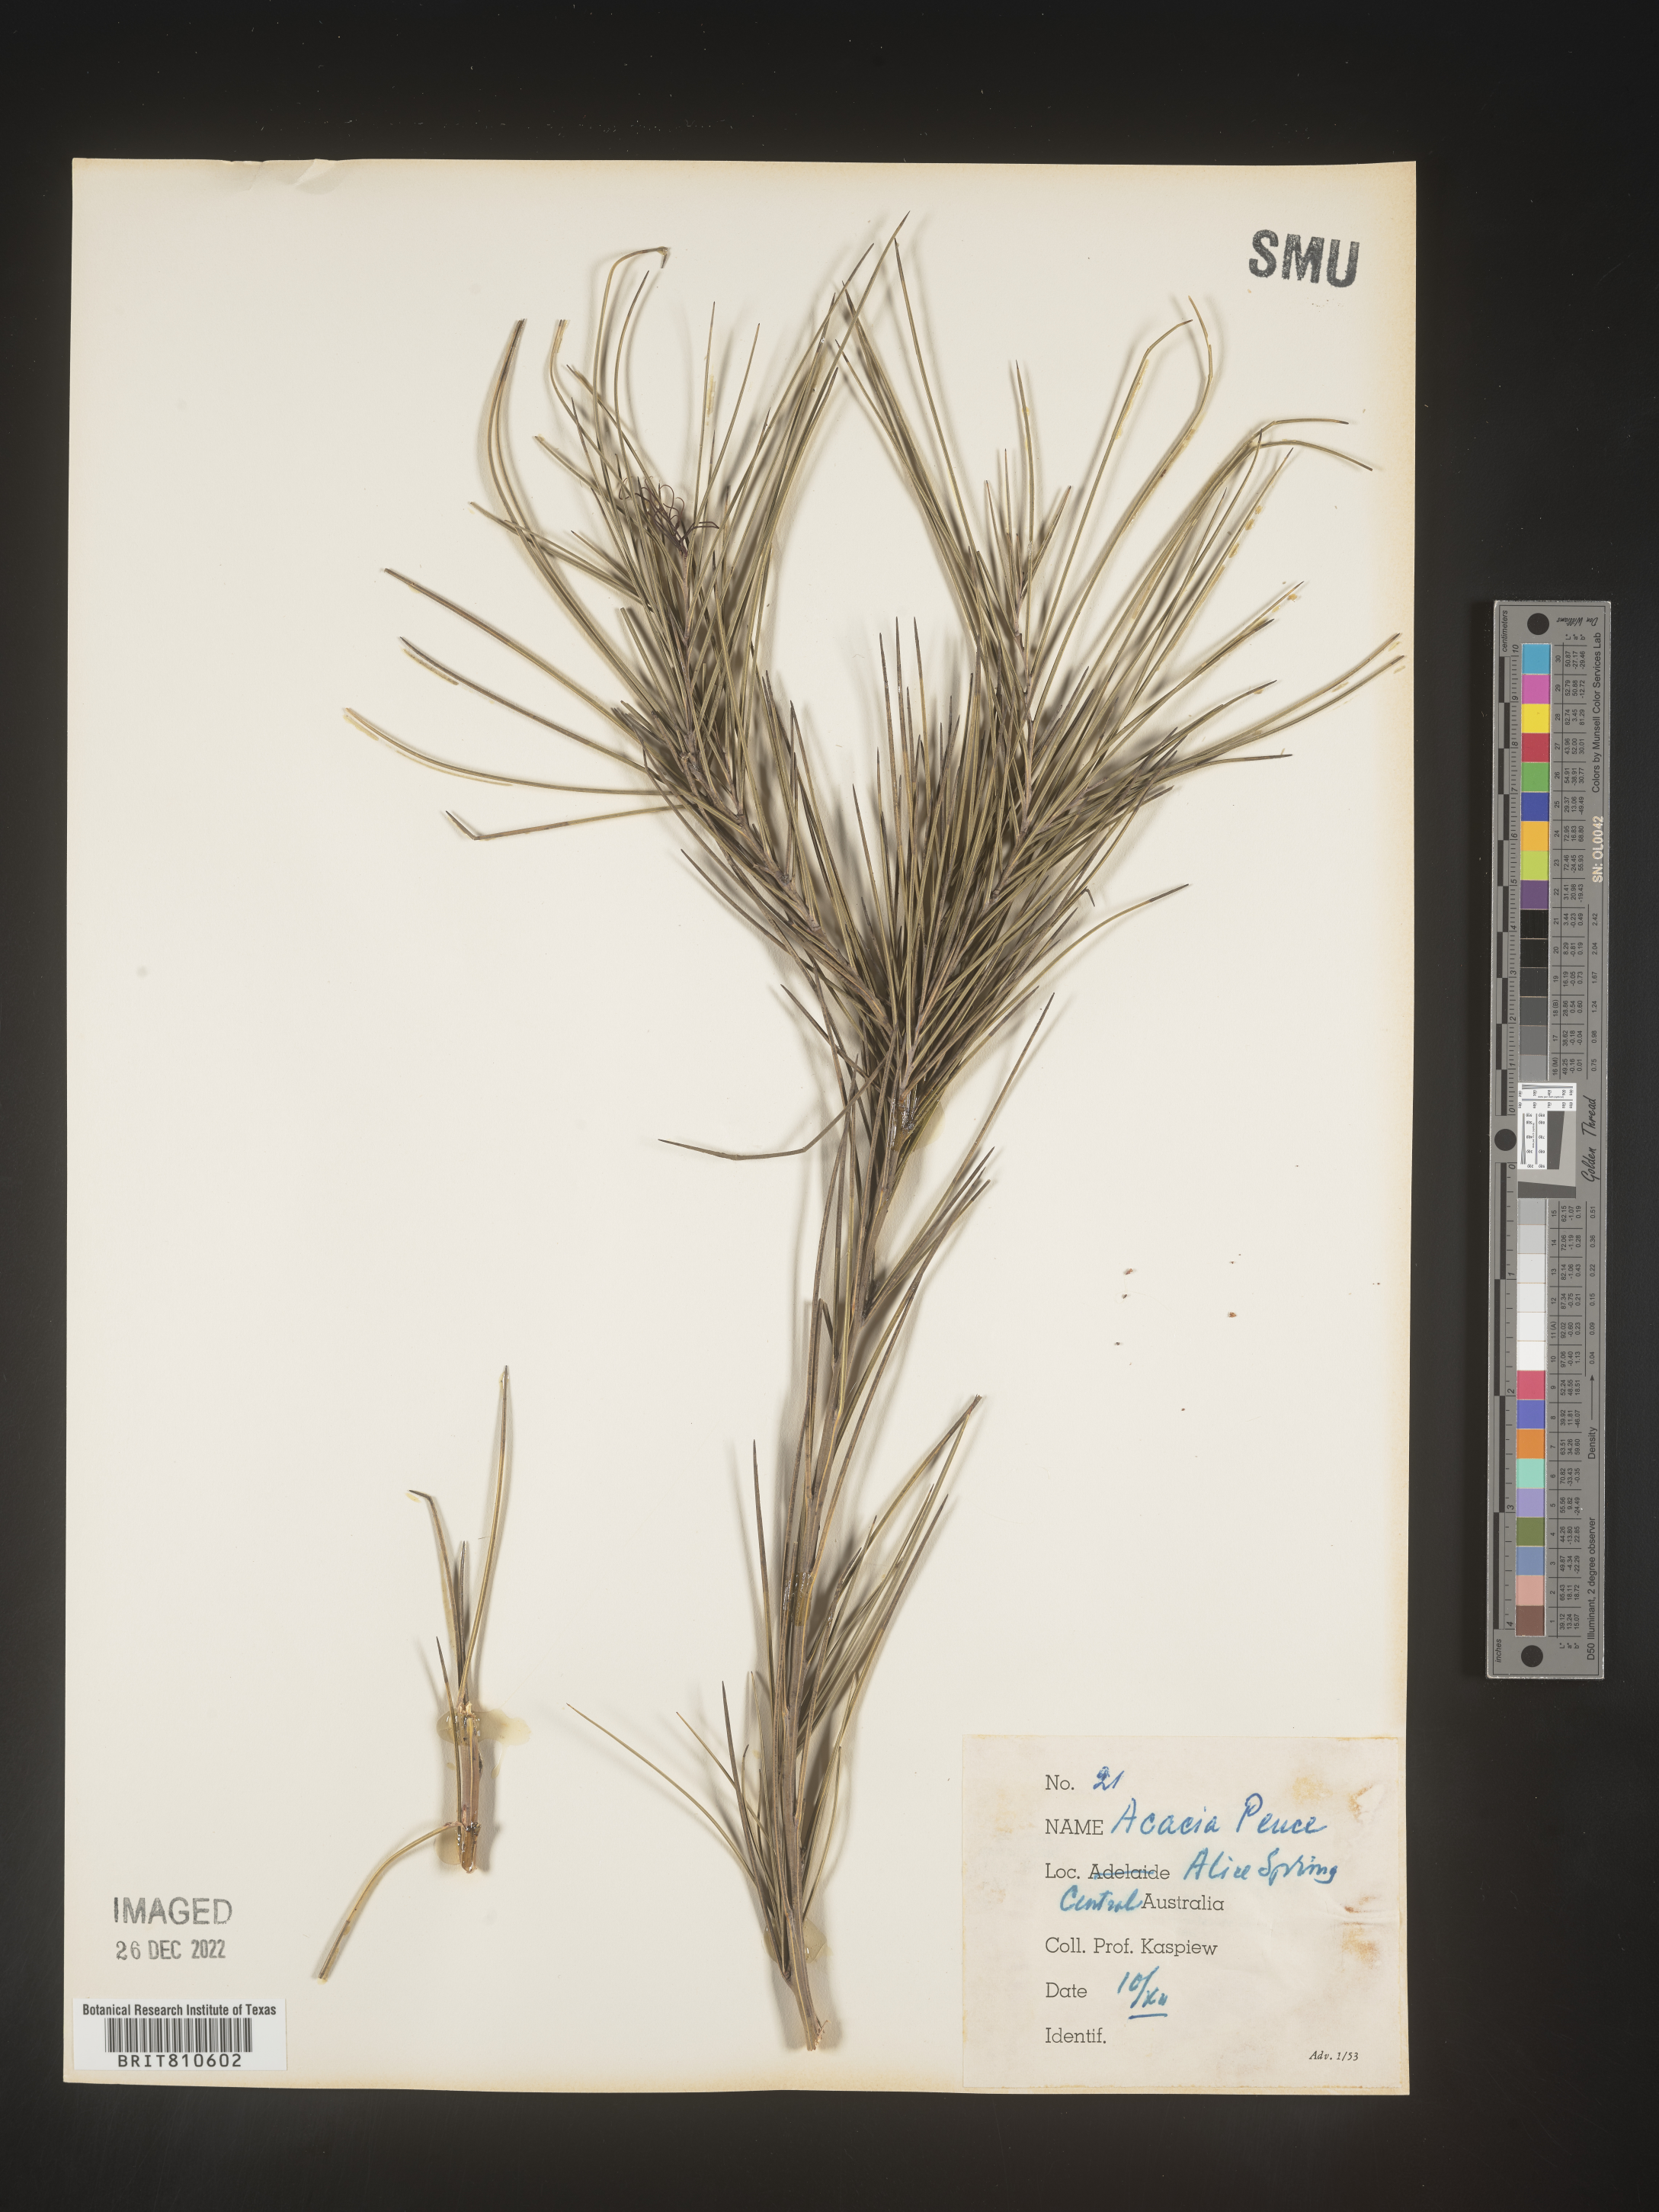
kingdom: Plantae
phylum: Tracheophyta
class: Magnoliopsida
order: Fabales
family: Fabaceae
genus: Acacia
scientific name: Acacia
